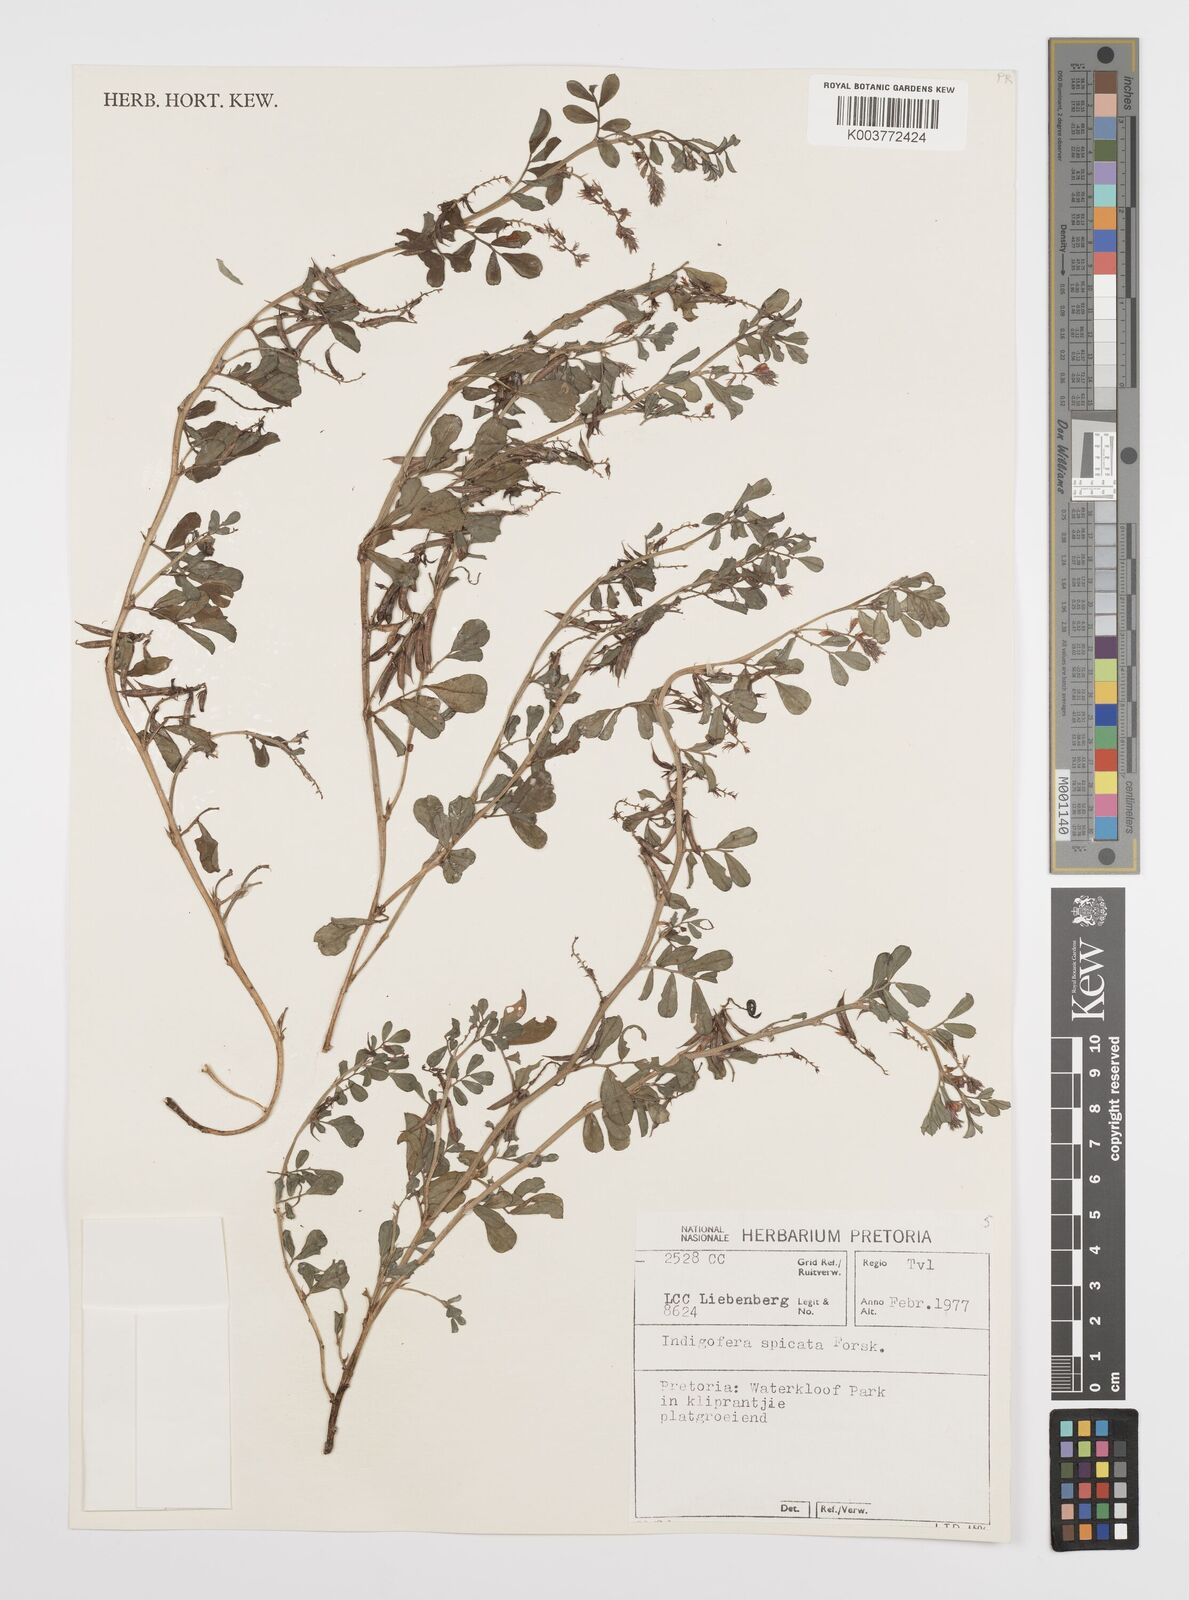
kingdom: Plantae
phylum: Tracheophyta
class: Magnoliopsida
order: Fabales
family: Fabaceae
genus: Indigofera
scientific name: Indigofera oxalidea
